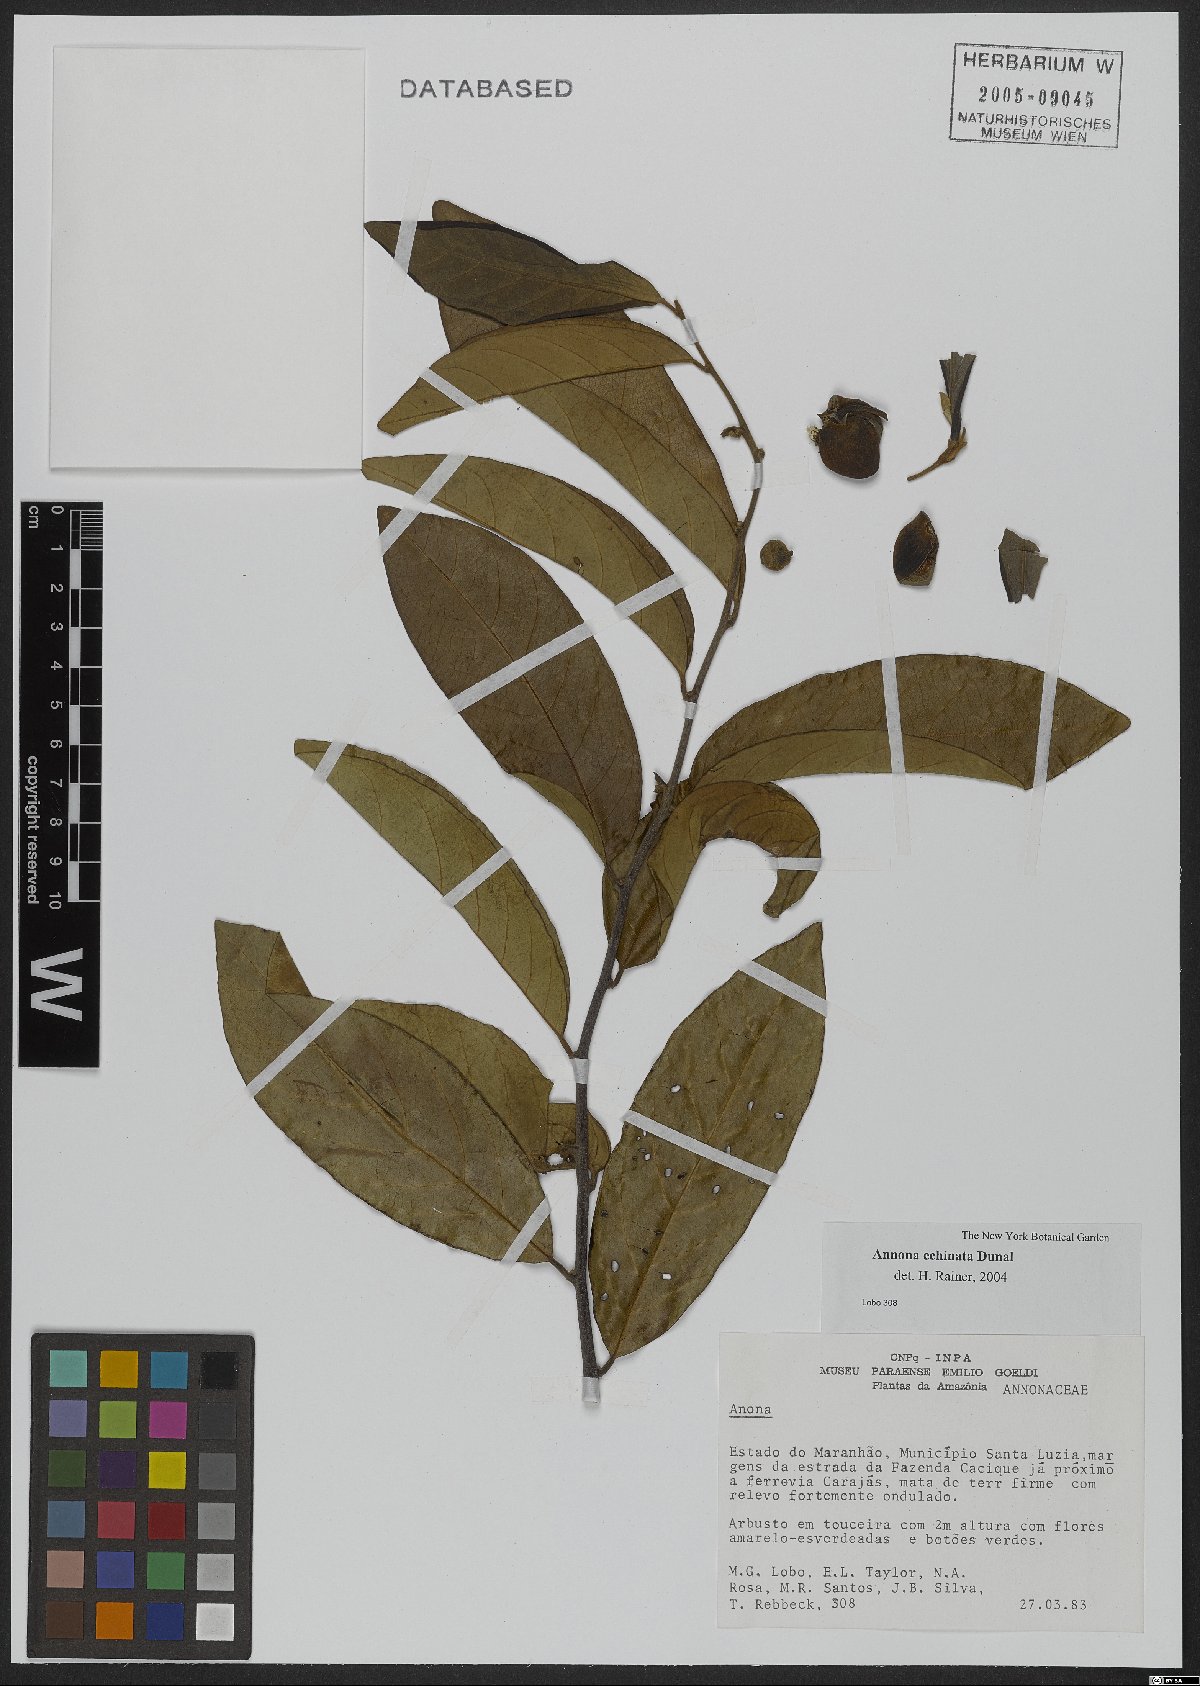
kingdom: Plantae
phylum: Tracheophyta
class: Magnoliopsida
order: Magnoliales
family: Annonaceae
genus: Annona
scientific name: Annona echinata
